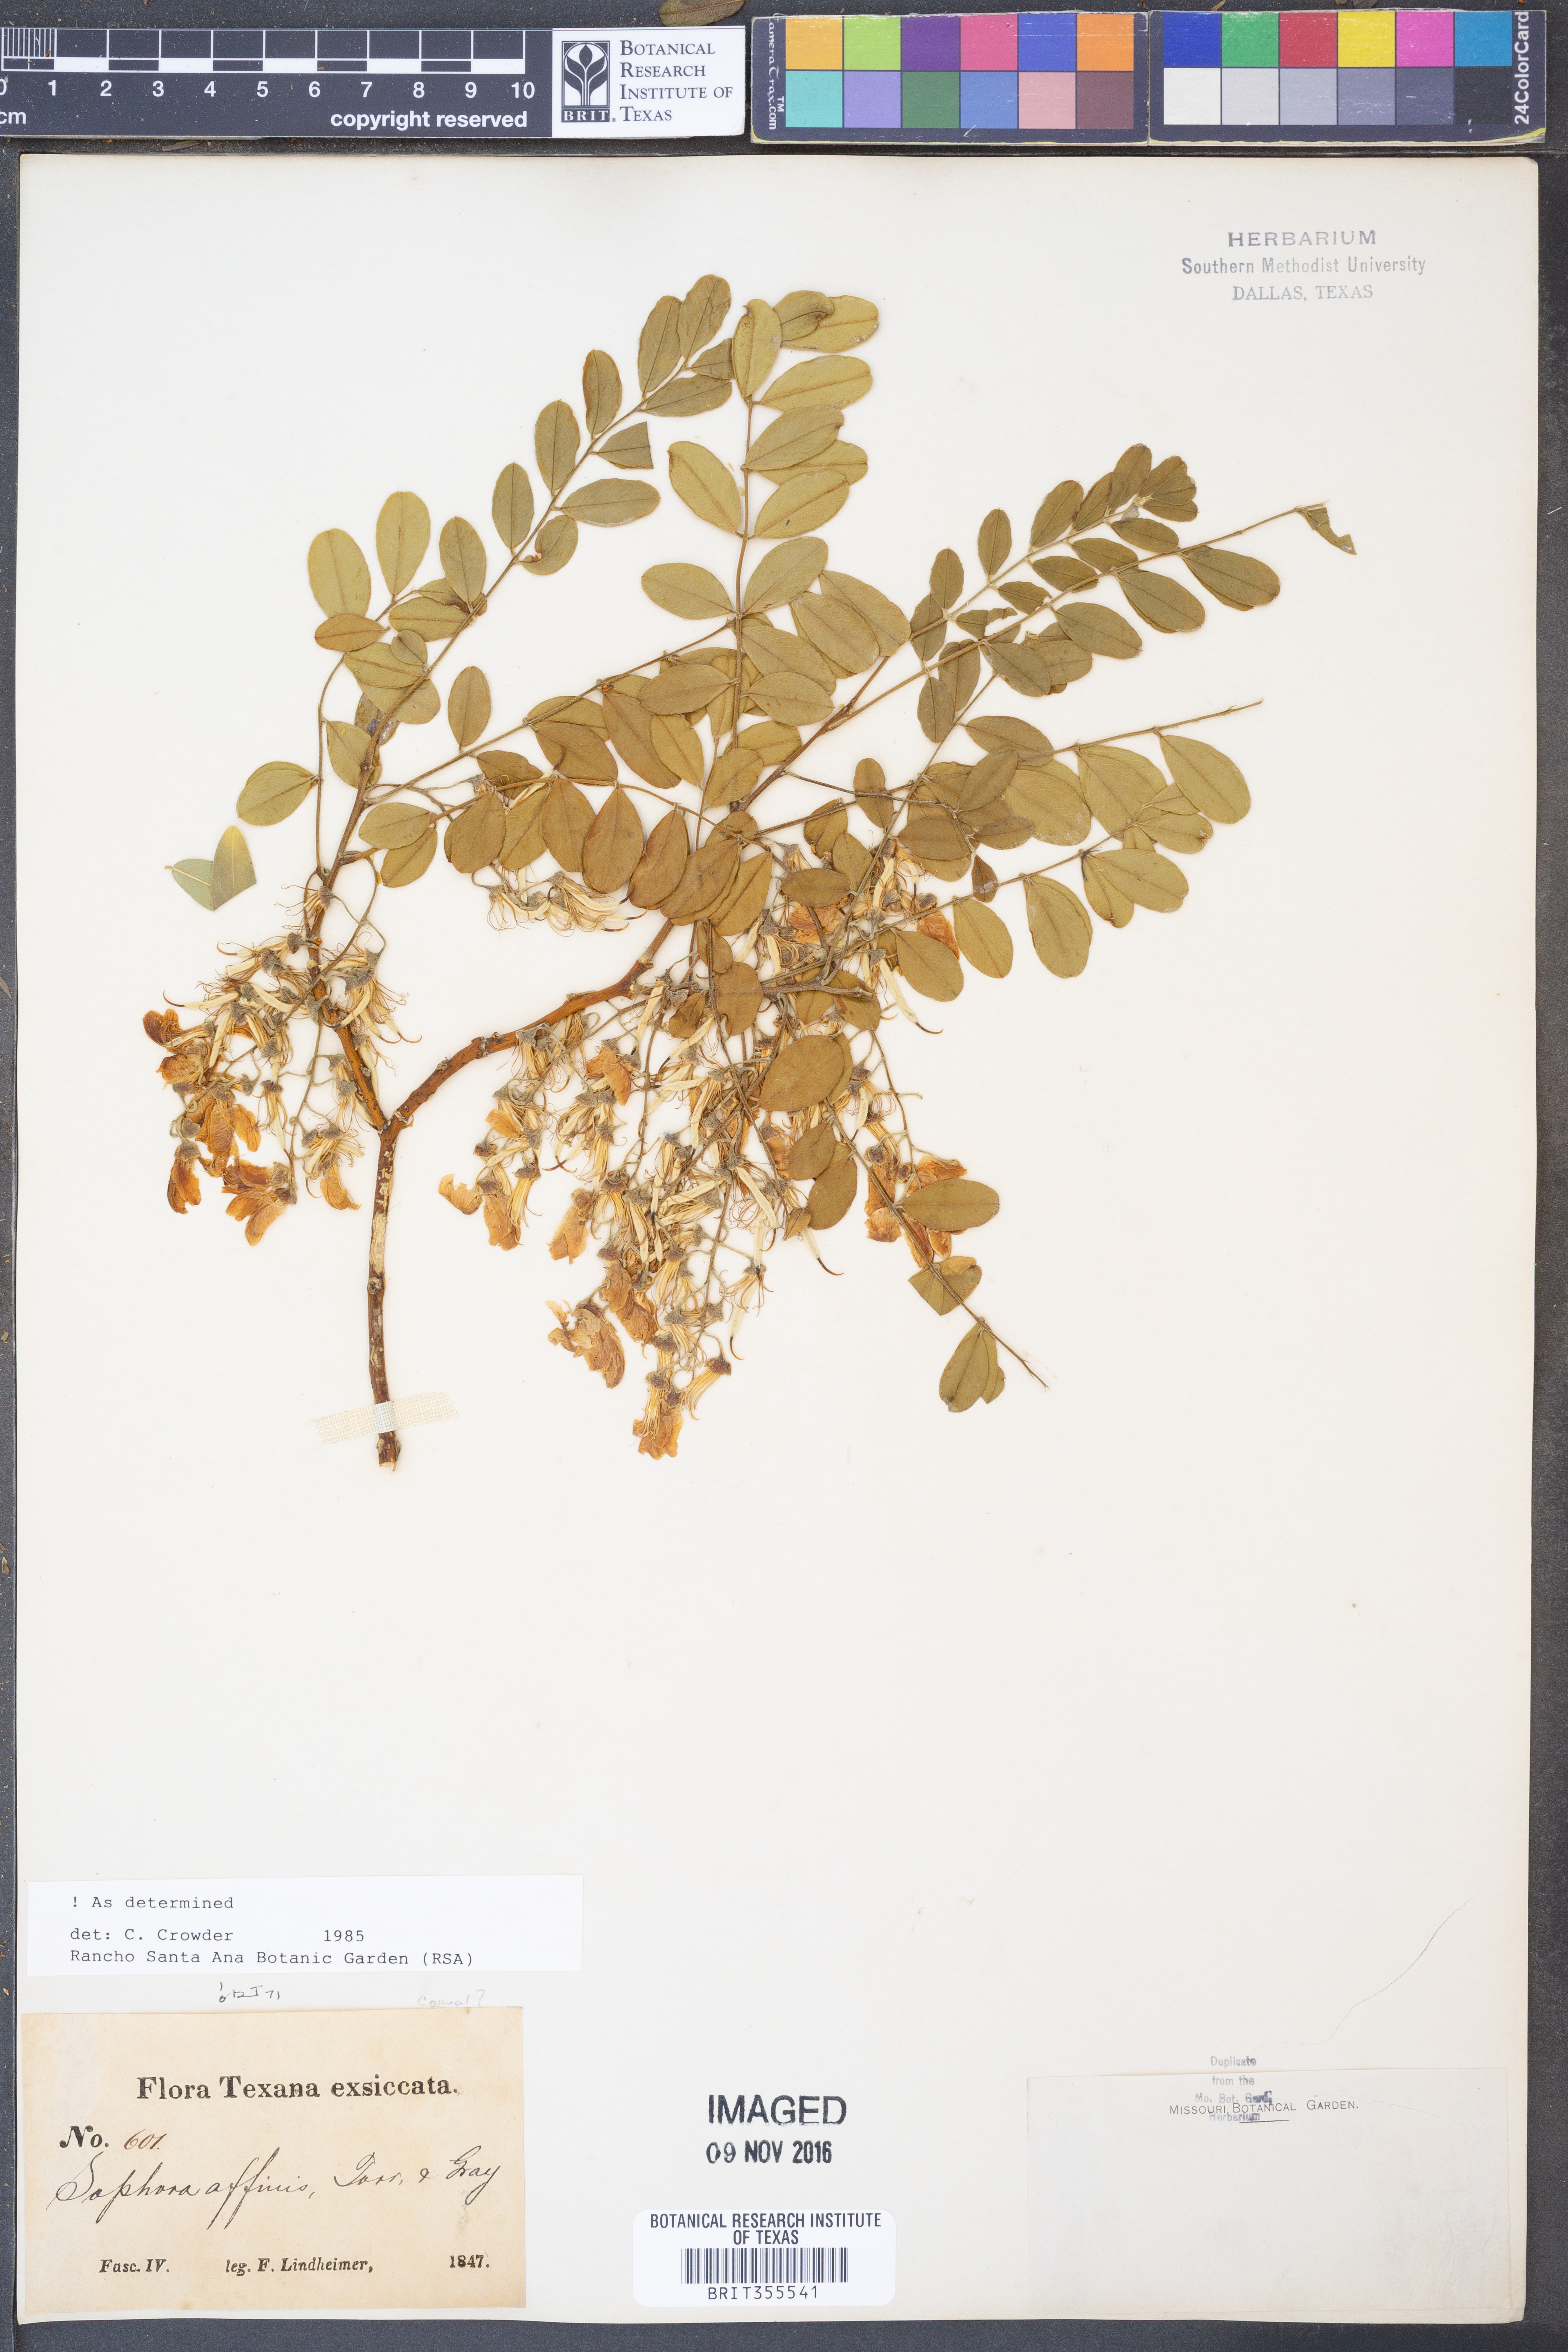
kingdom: Plantae
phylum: Tracheophyta
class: Magnoliopsida
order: Fabales
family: Fabaceae
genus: Styphnolobium
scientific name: Styphnolobium affine
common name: Texas sophora
